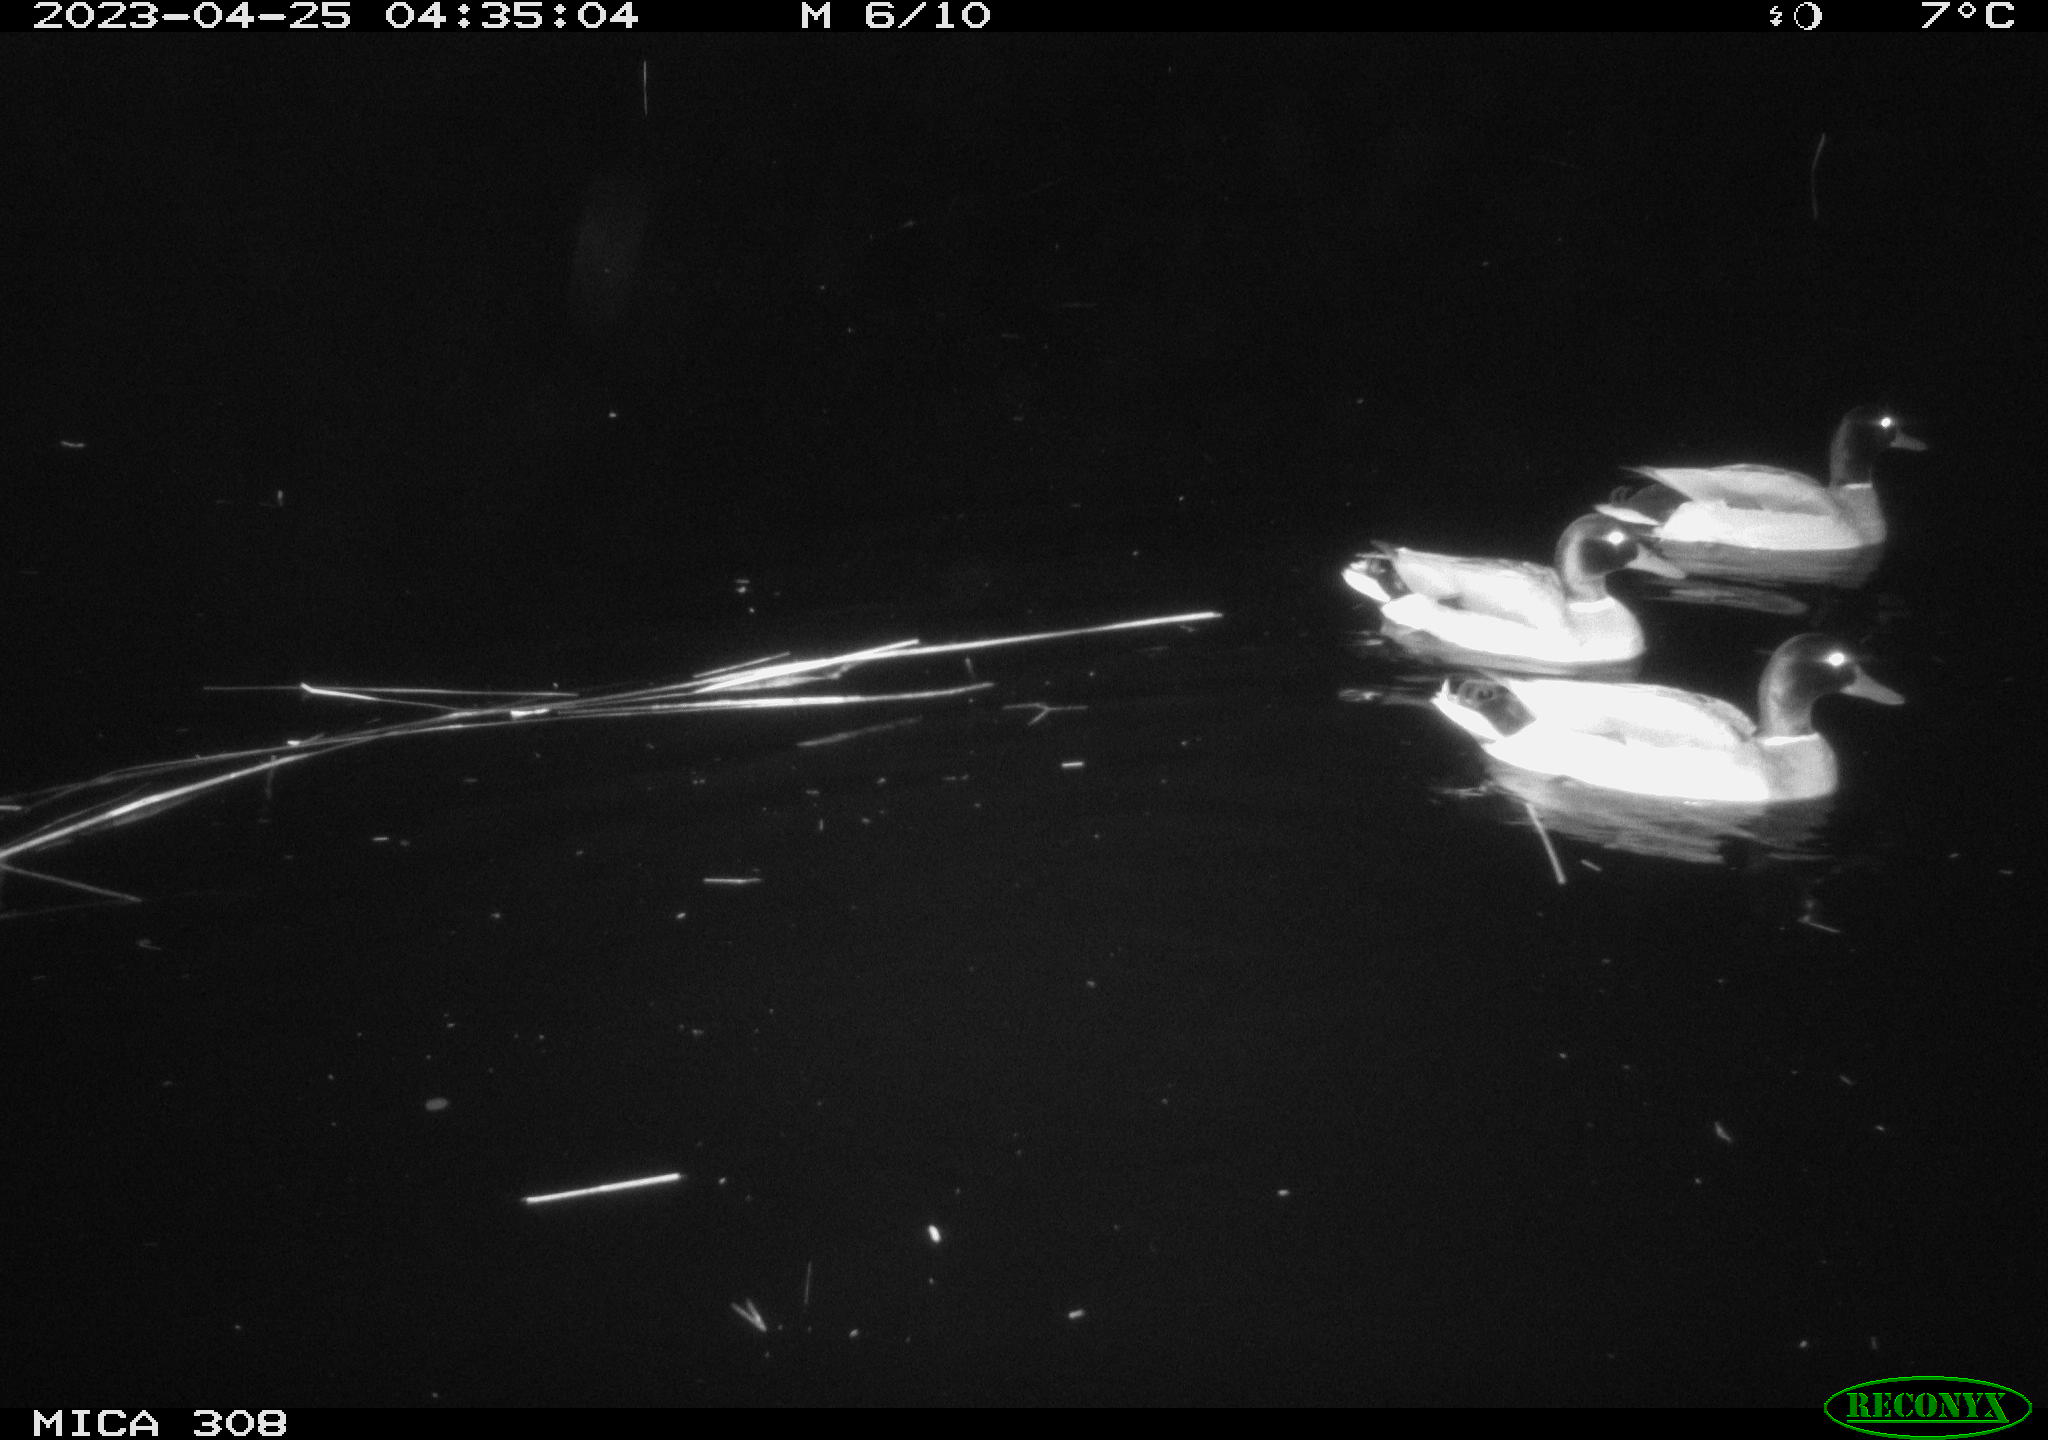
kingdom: Animalia
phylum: Chordata
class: Aves
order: Anseriformes
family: Anatidae
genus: Anas
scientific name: Anas
